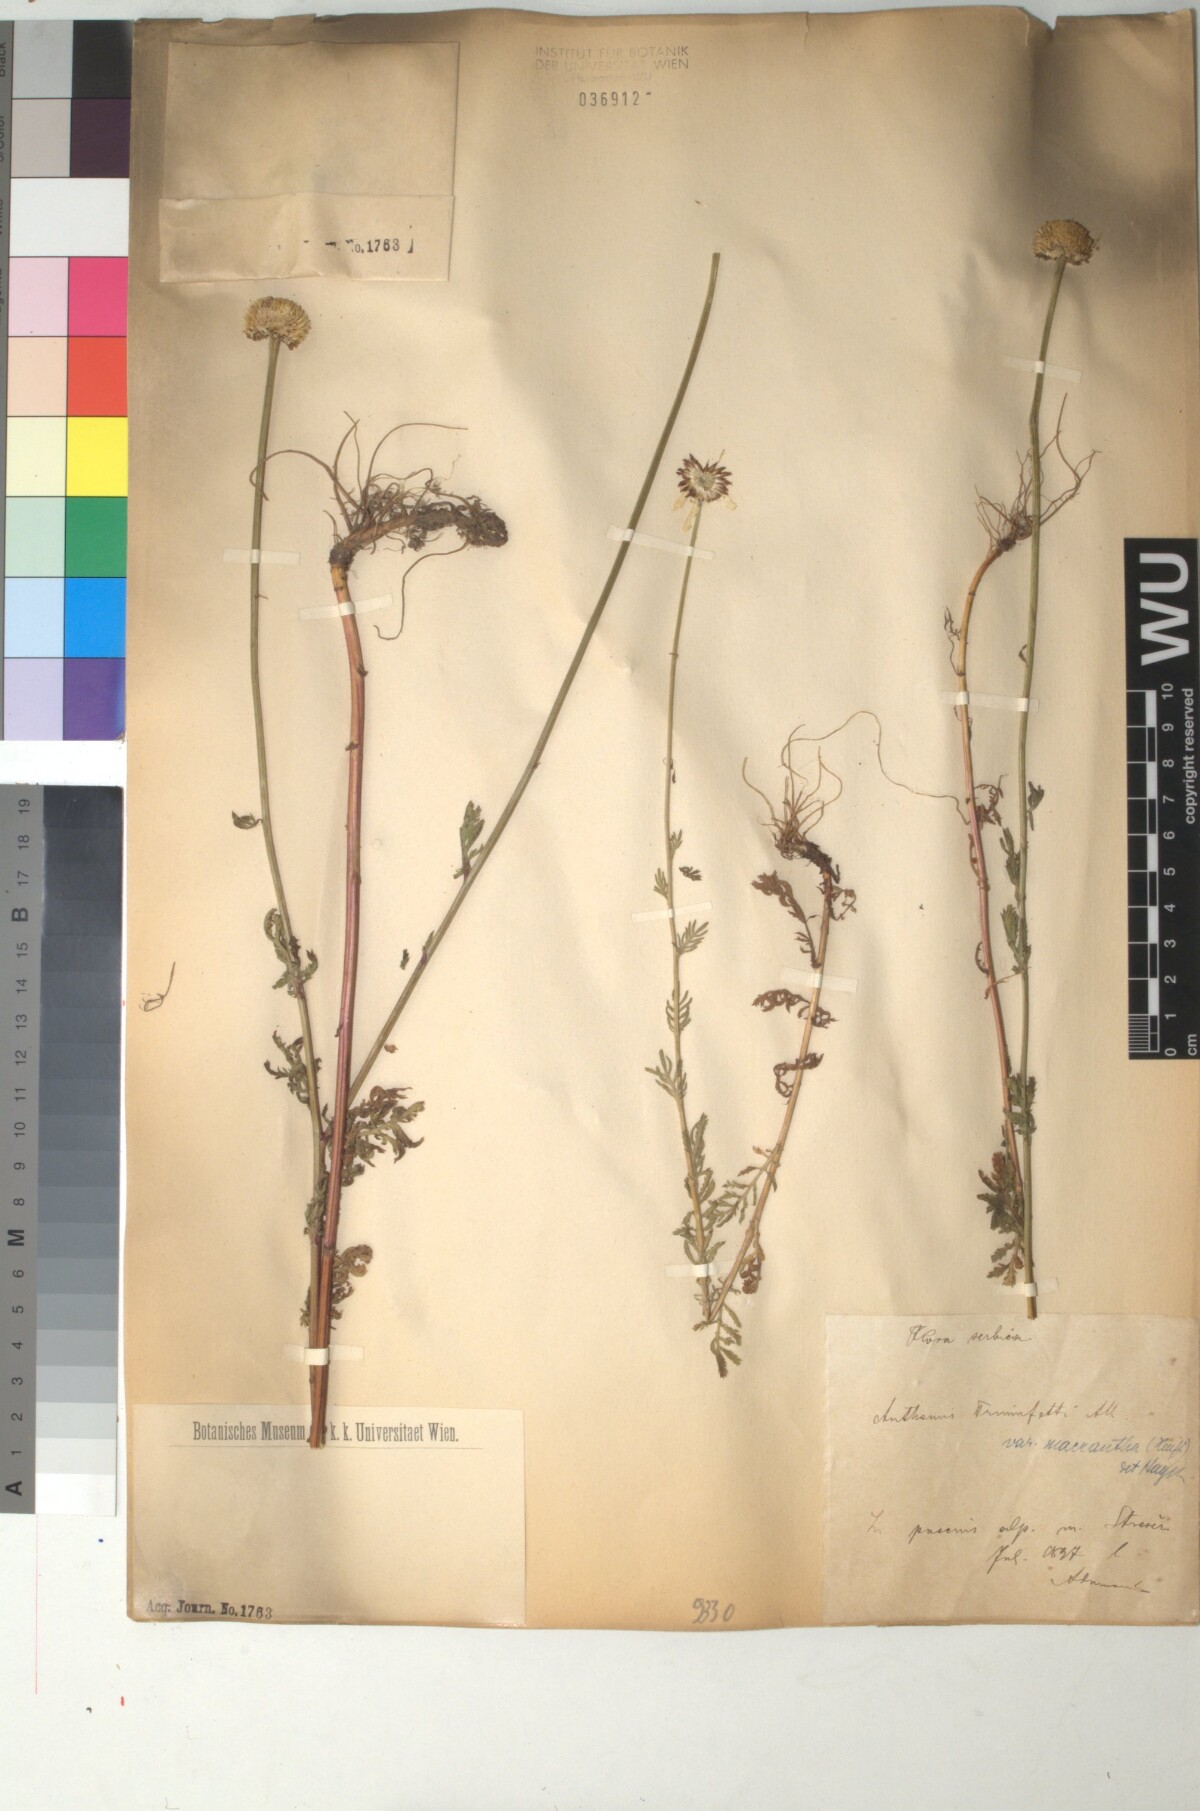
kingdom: Plantae
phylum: Tracheophyta
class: Magnoliopsida
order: Asterales
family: Asteraceae
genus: Cota
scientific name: Cota triumfetti
